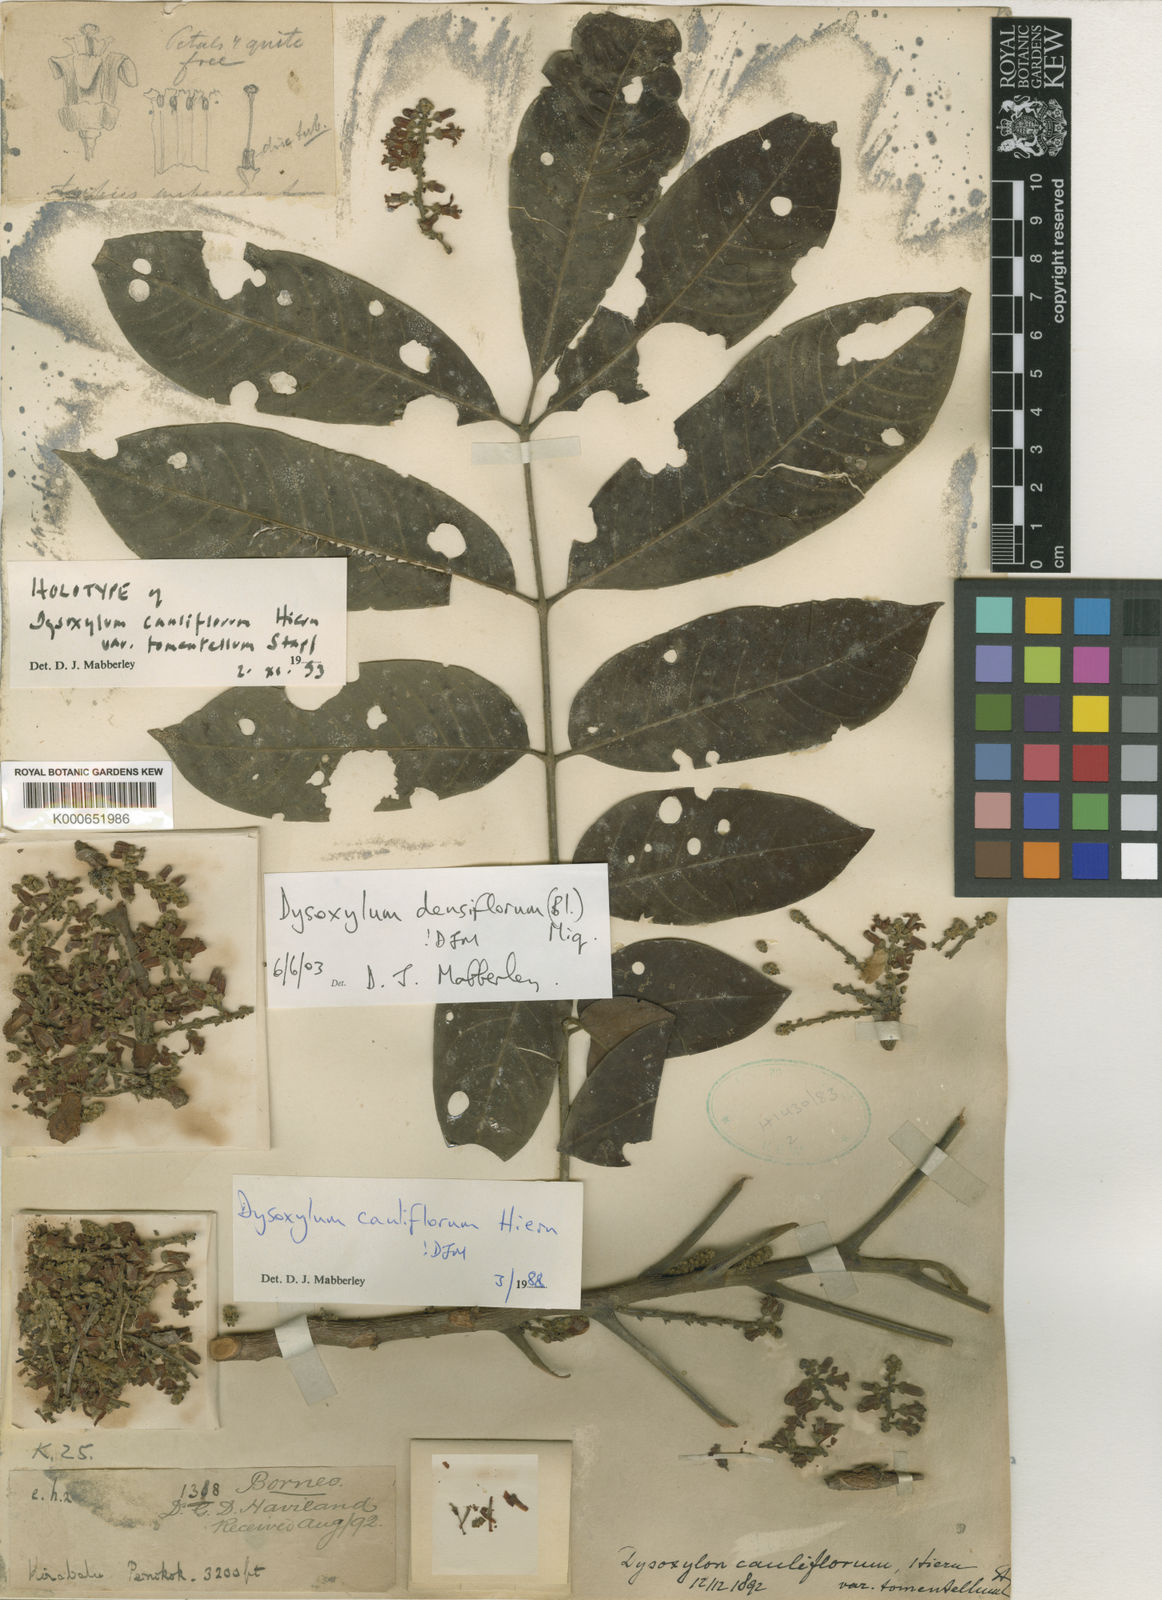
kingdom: Plantae
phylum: Tracheophyta
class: Magnoliopsida
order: Sapindales
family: Meliaceae
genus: Epicharis
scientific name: Epicharis densiflora
